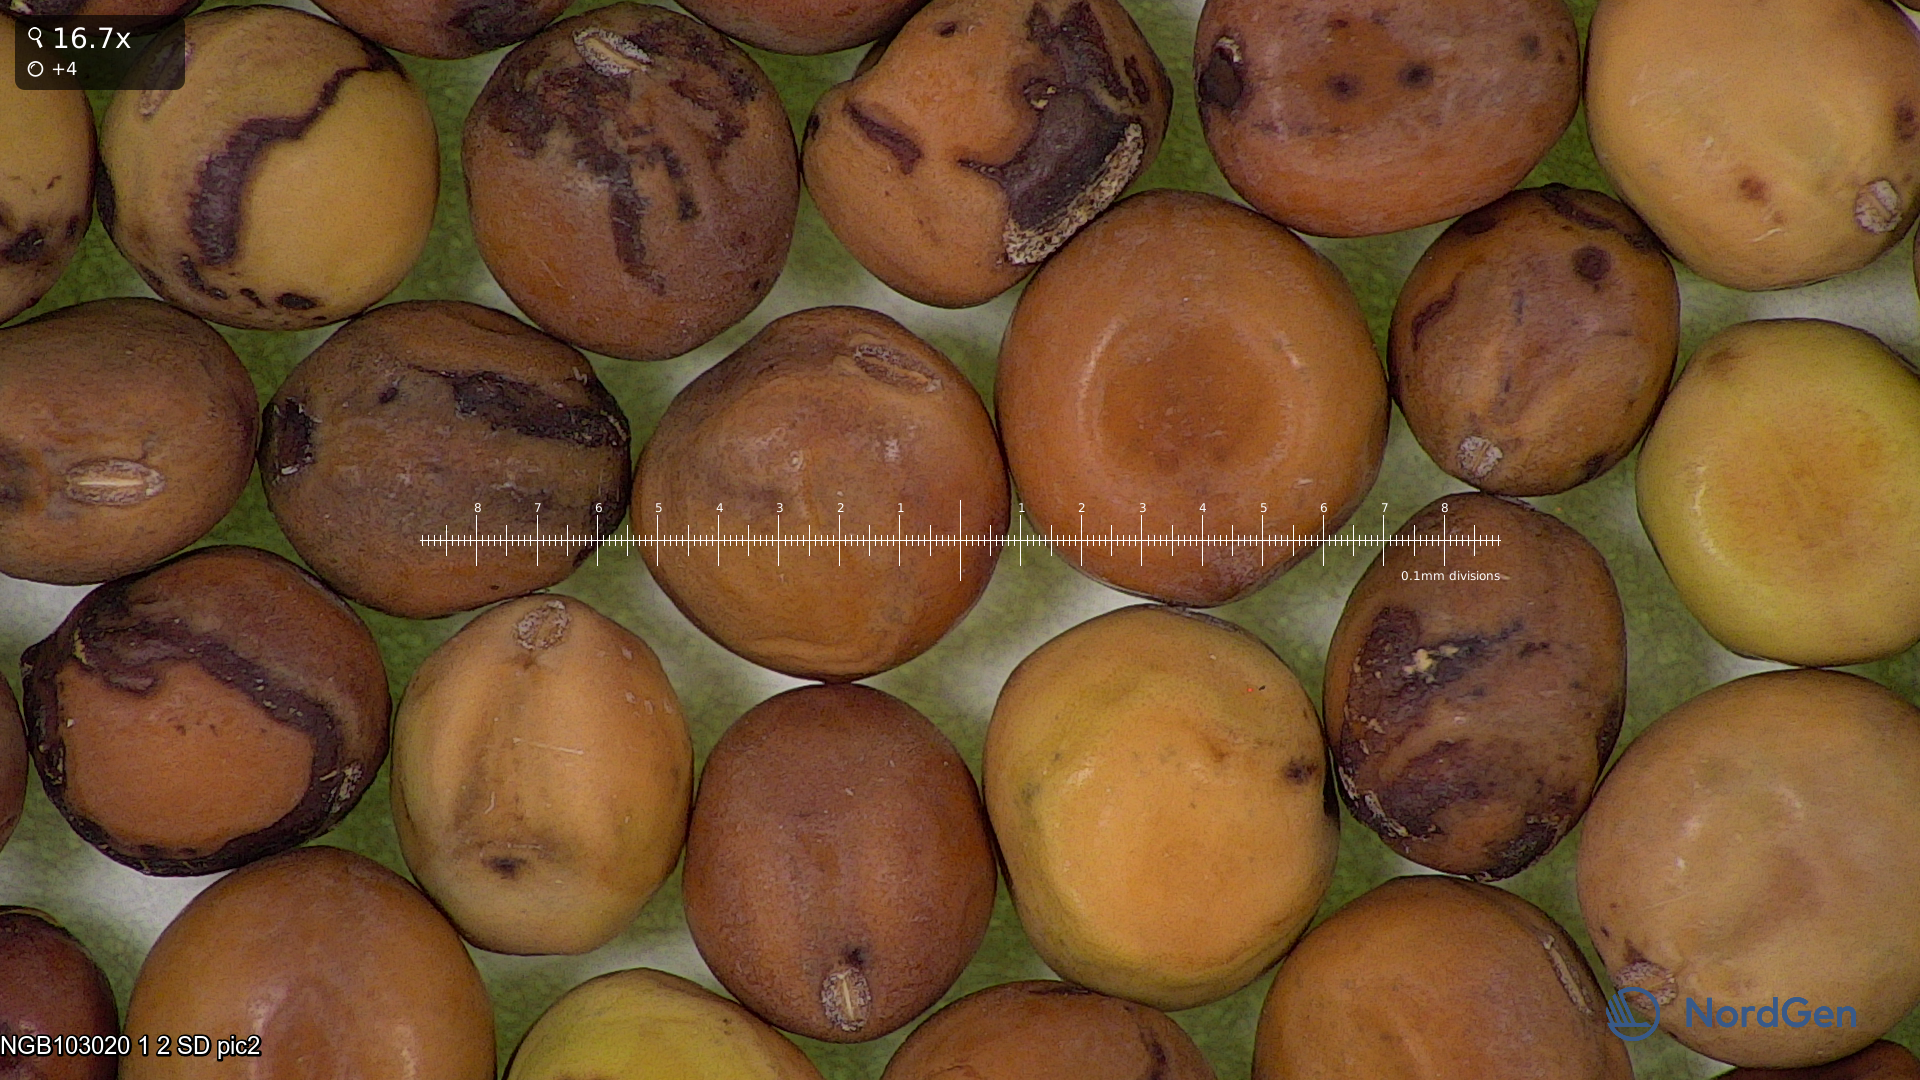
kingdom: Plantae
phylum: Tracheophyta
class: Magnoliopsida
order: Fabales
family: Fabaceae
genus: Lathyrus
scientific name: Lathyrus oleraceus
